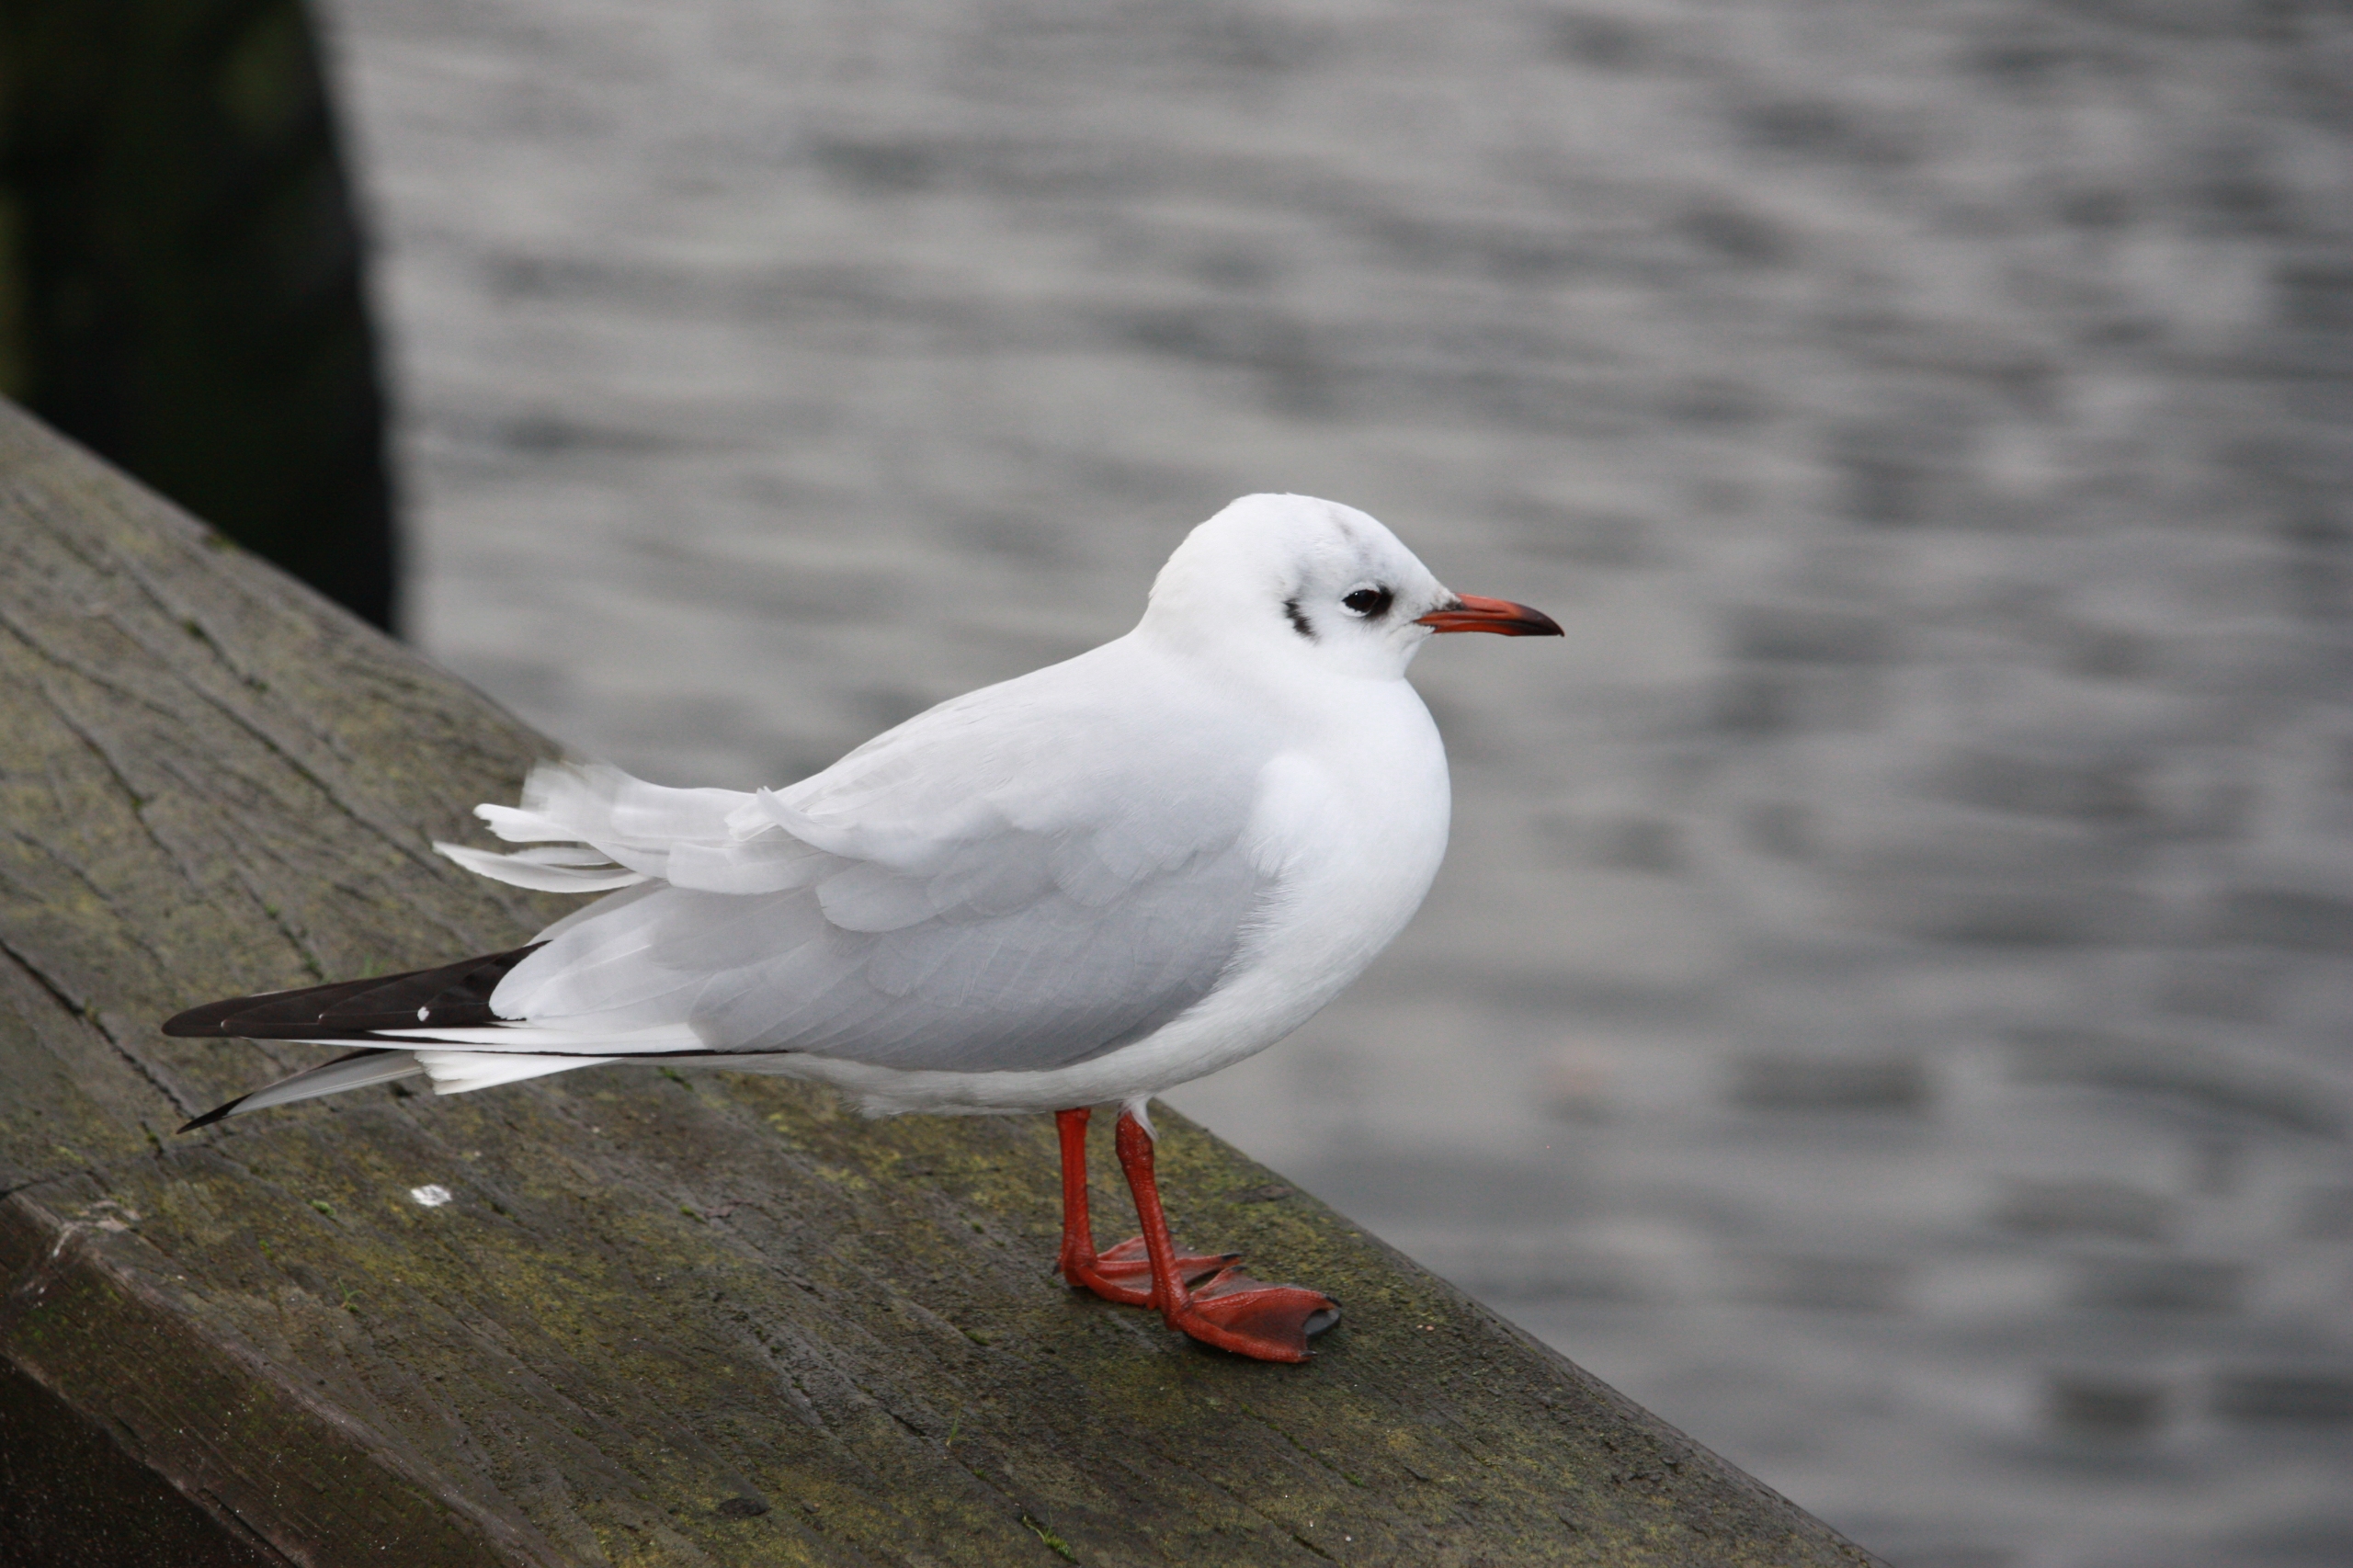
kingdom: Animalia
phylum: Chordata
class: Aves
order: Charadriiformes
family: Laridae
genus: Chroicocephalus
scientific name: Chroicocephalus ridibundus
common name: Hættemåge
